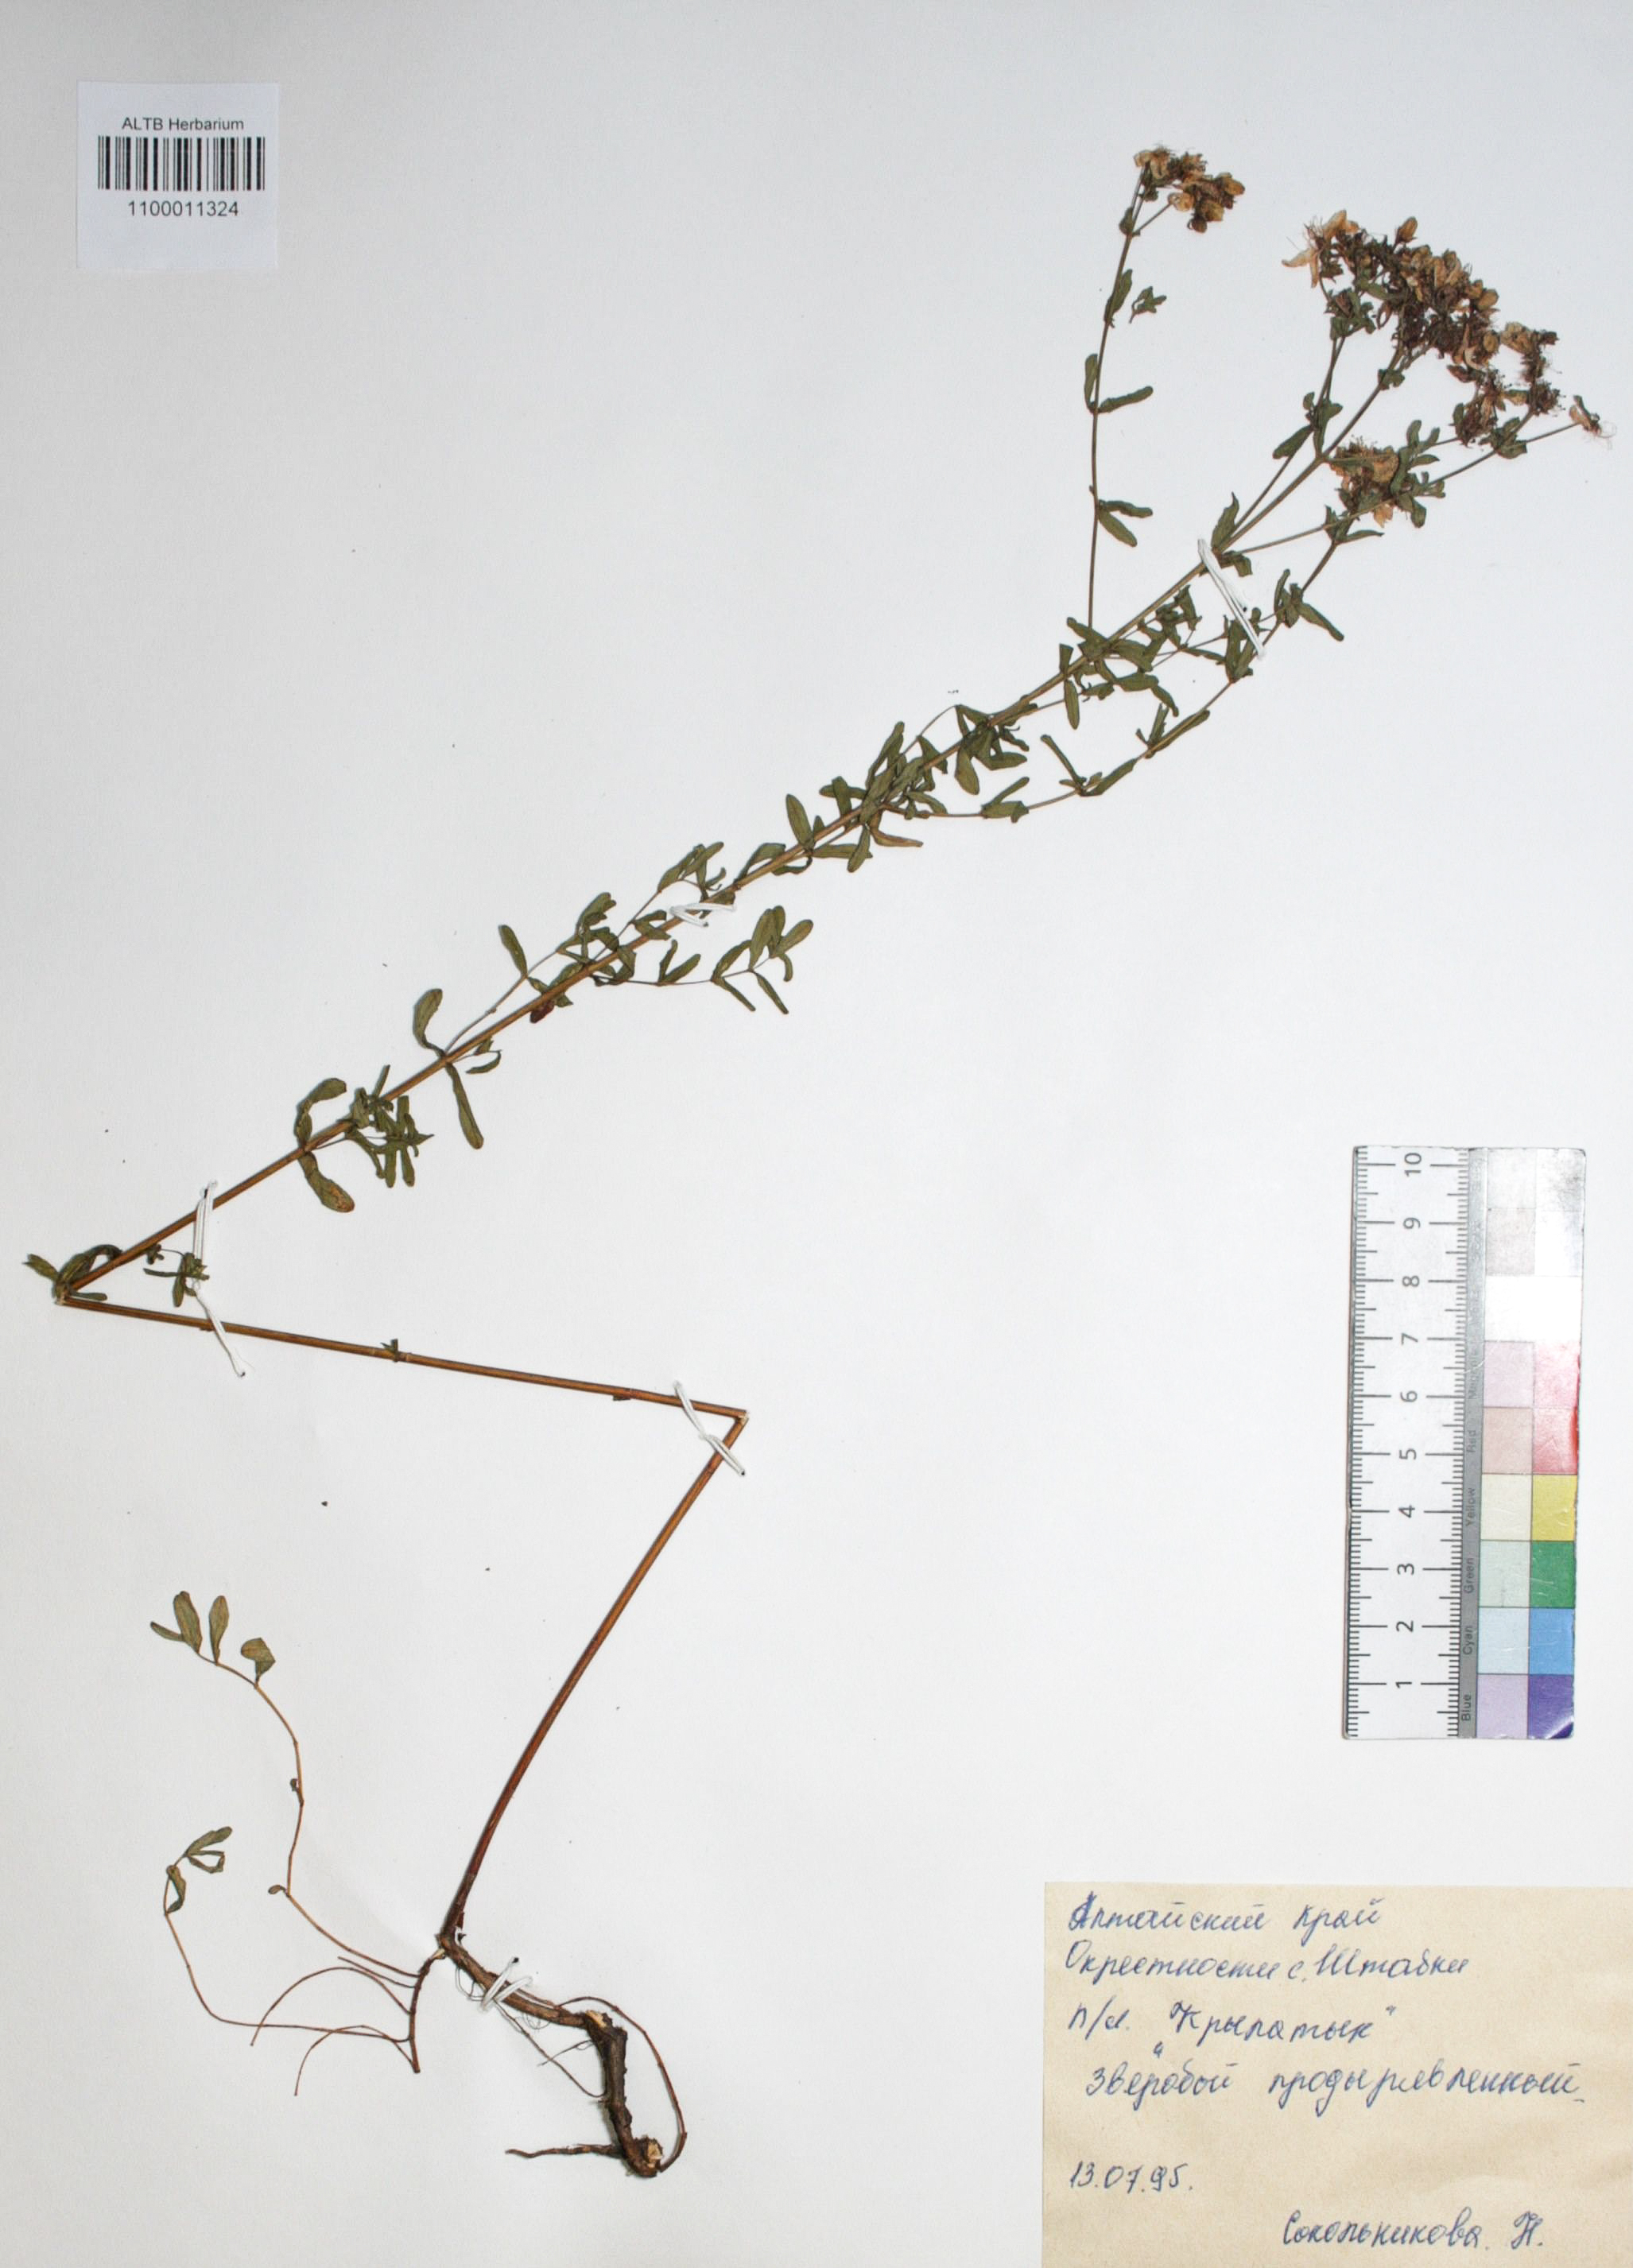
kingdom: Plantae
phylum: Tracheophyta
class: Magnoliopsida
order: Malpighiales
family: Hypericaceae
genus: Hypericum
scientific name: Hypericum perforatum
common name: Common st. johnswort
